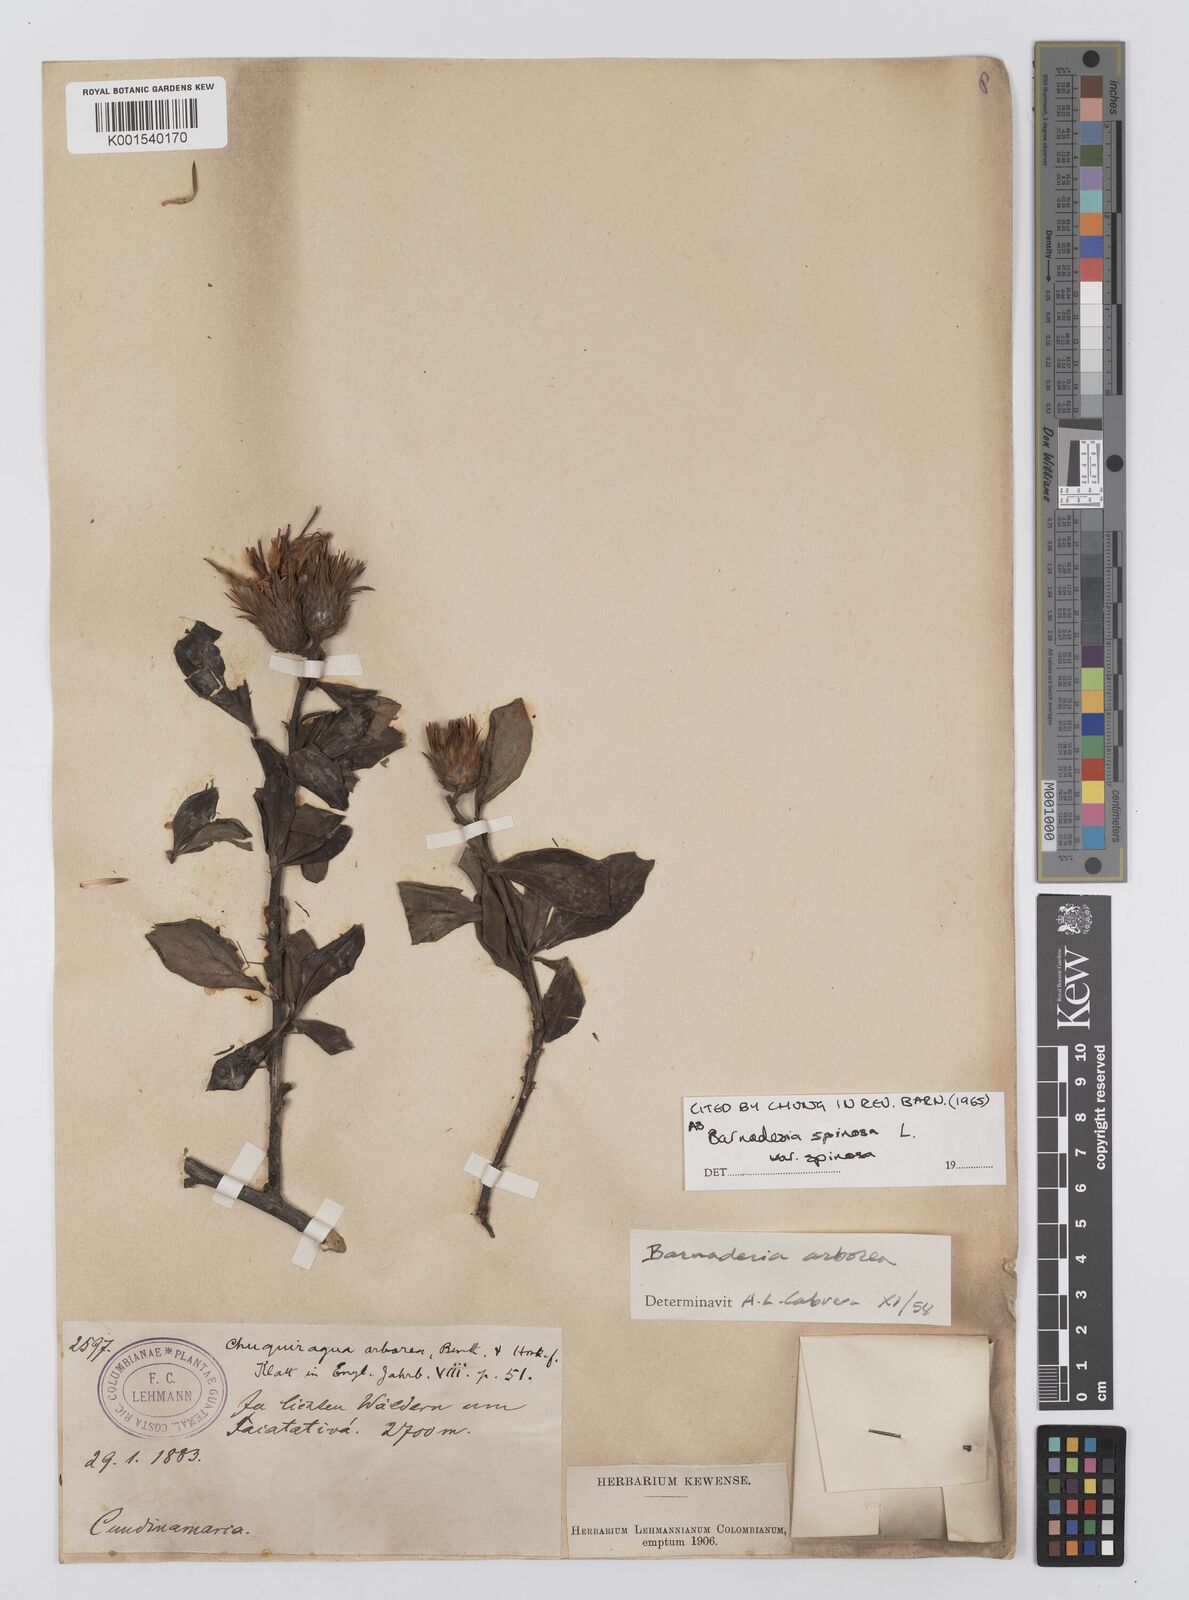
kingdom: Plantae
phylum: Tracheophyta
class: Magnoliopsida
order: Asterales
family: Asteraceae
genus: Barnadesia
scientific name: Barnadesia spinosa
